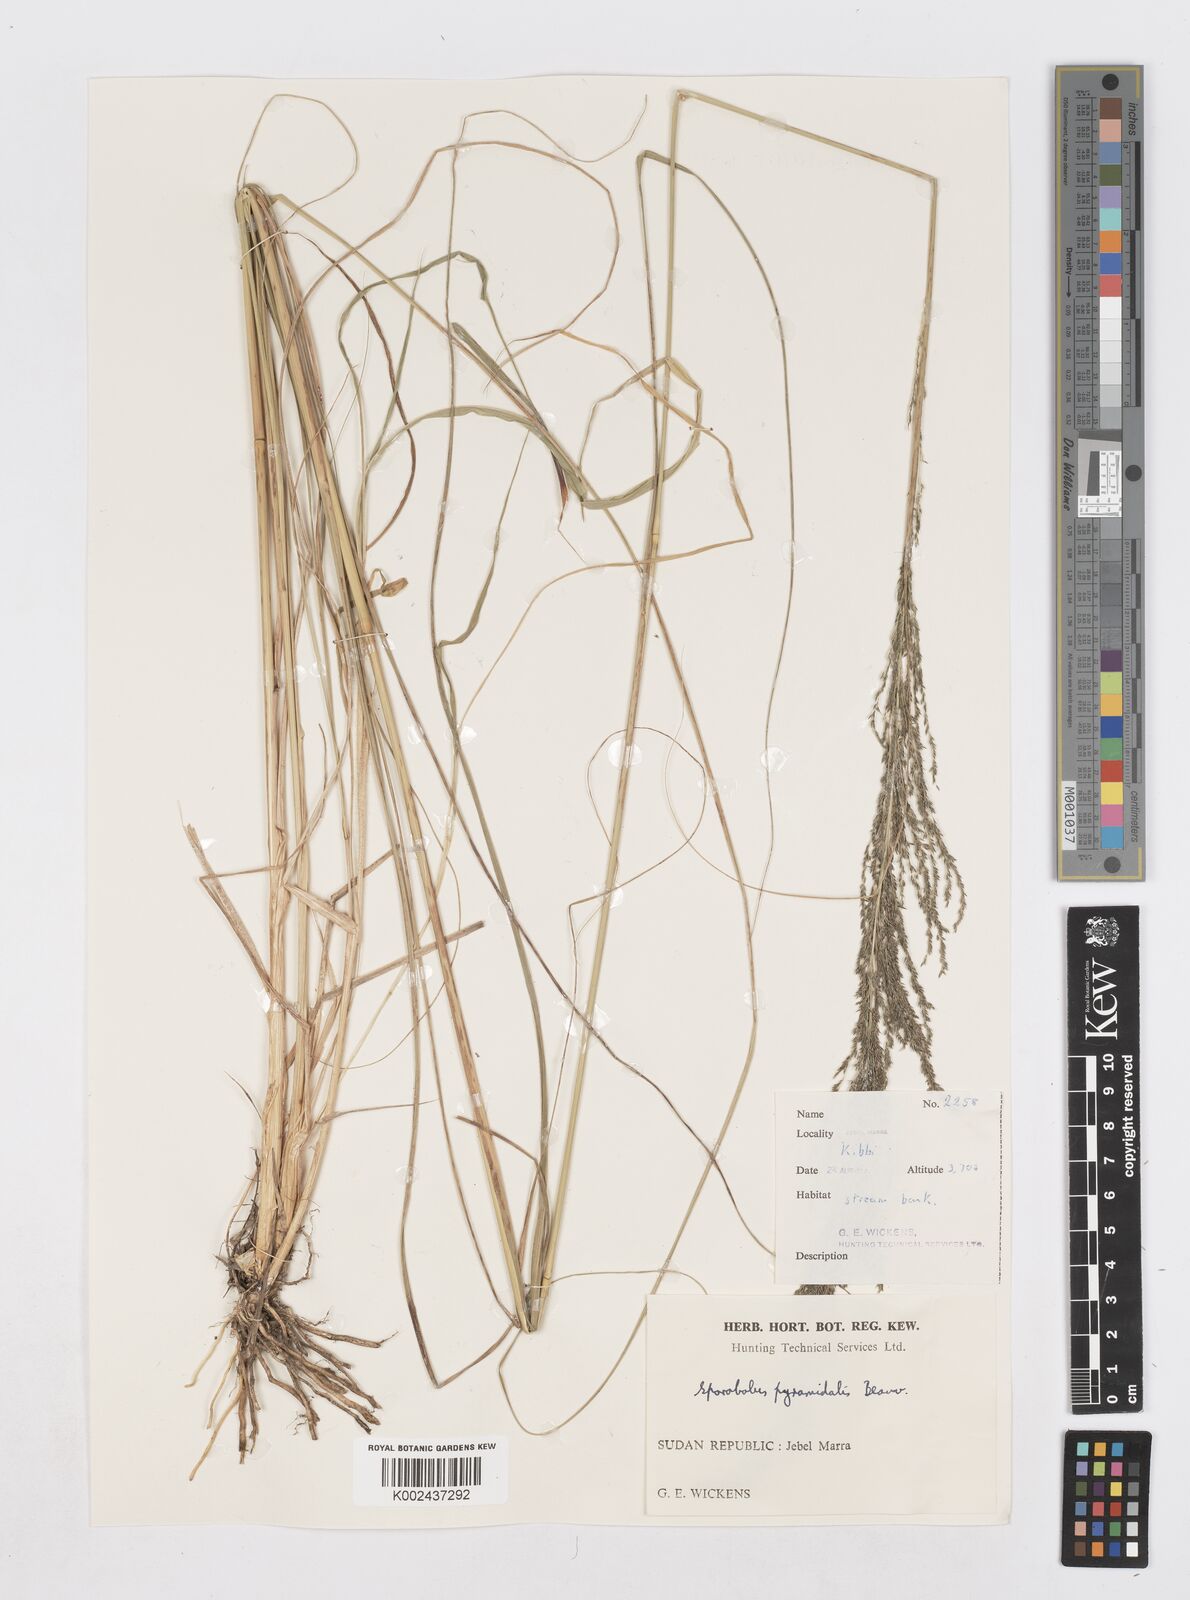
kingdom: Plantae
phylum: Tracheophyta
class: Liliopsida
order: Poales
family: Poaceae
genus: Sporobolus
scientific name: Sporobolus pyramidalis
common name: West indian dropseed
